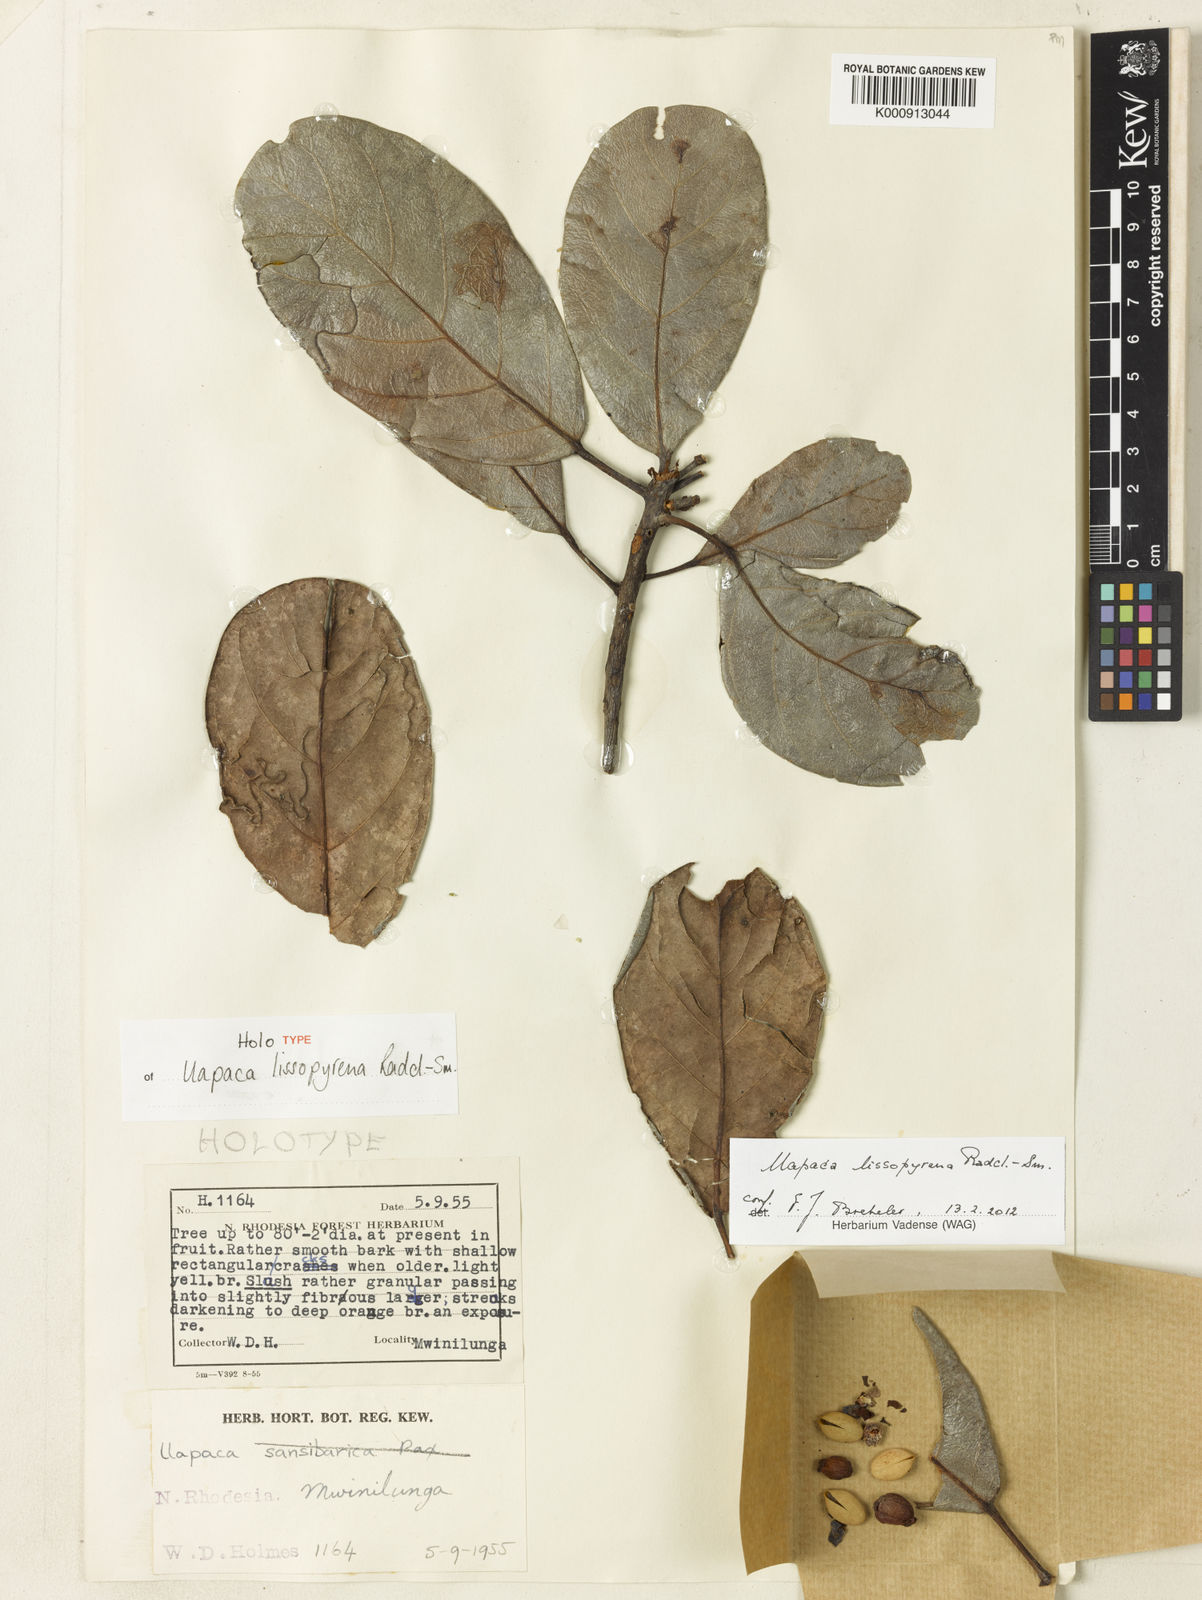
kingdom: Plantae
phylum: Tracheophyta
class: Magnoliopsida
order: Malpighiales
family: Phyllanthaceae
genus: Uapaca
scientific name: Uapaca lissopyrena
